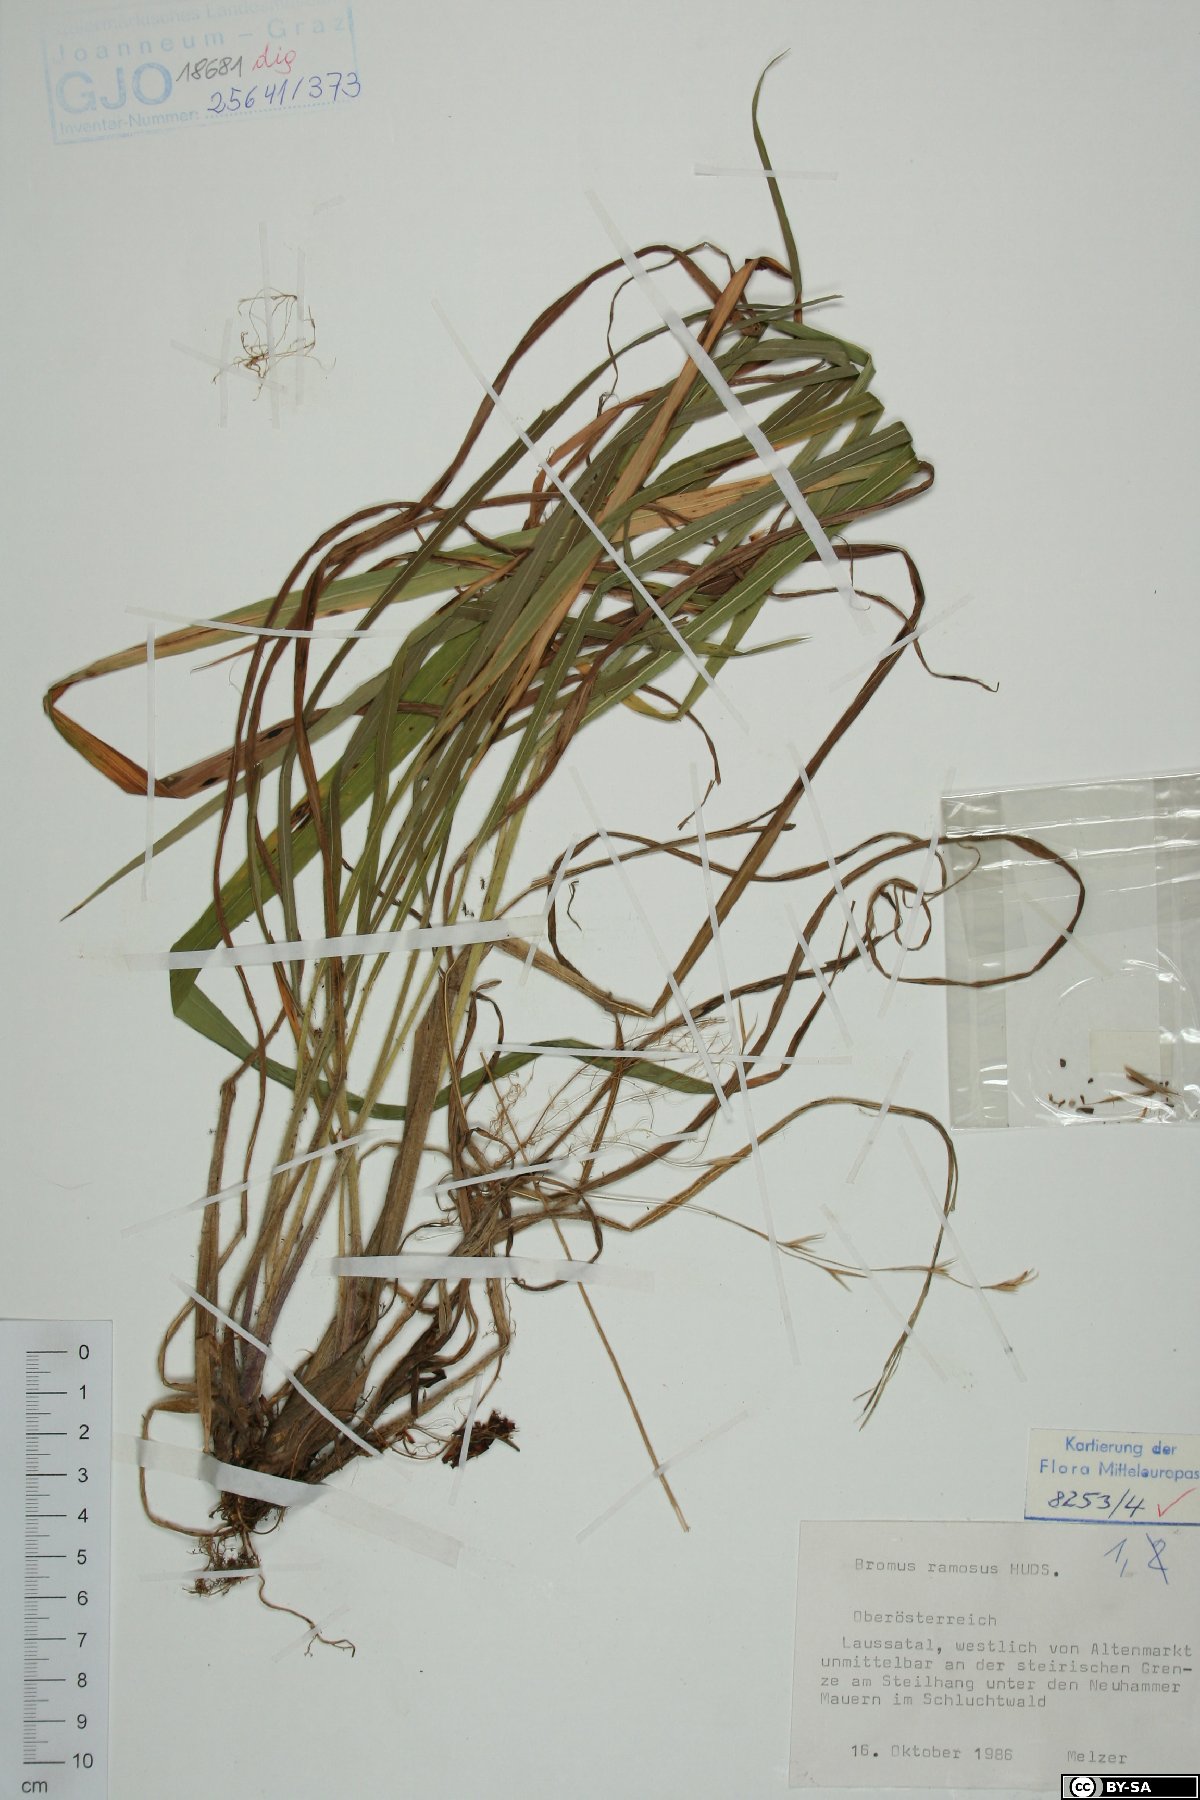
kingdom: Plantae
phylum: Tracheophyta
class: Liliopsida
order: Poales
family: Poaceae
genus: Bromus
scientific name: Bromus ramosus
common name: Hairy brome
